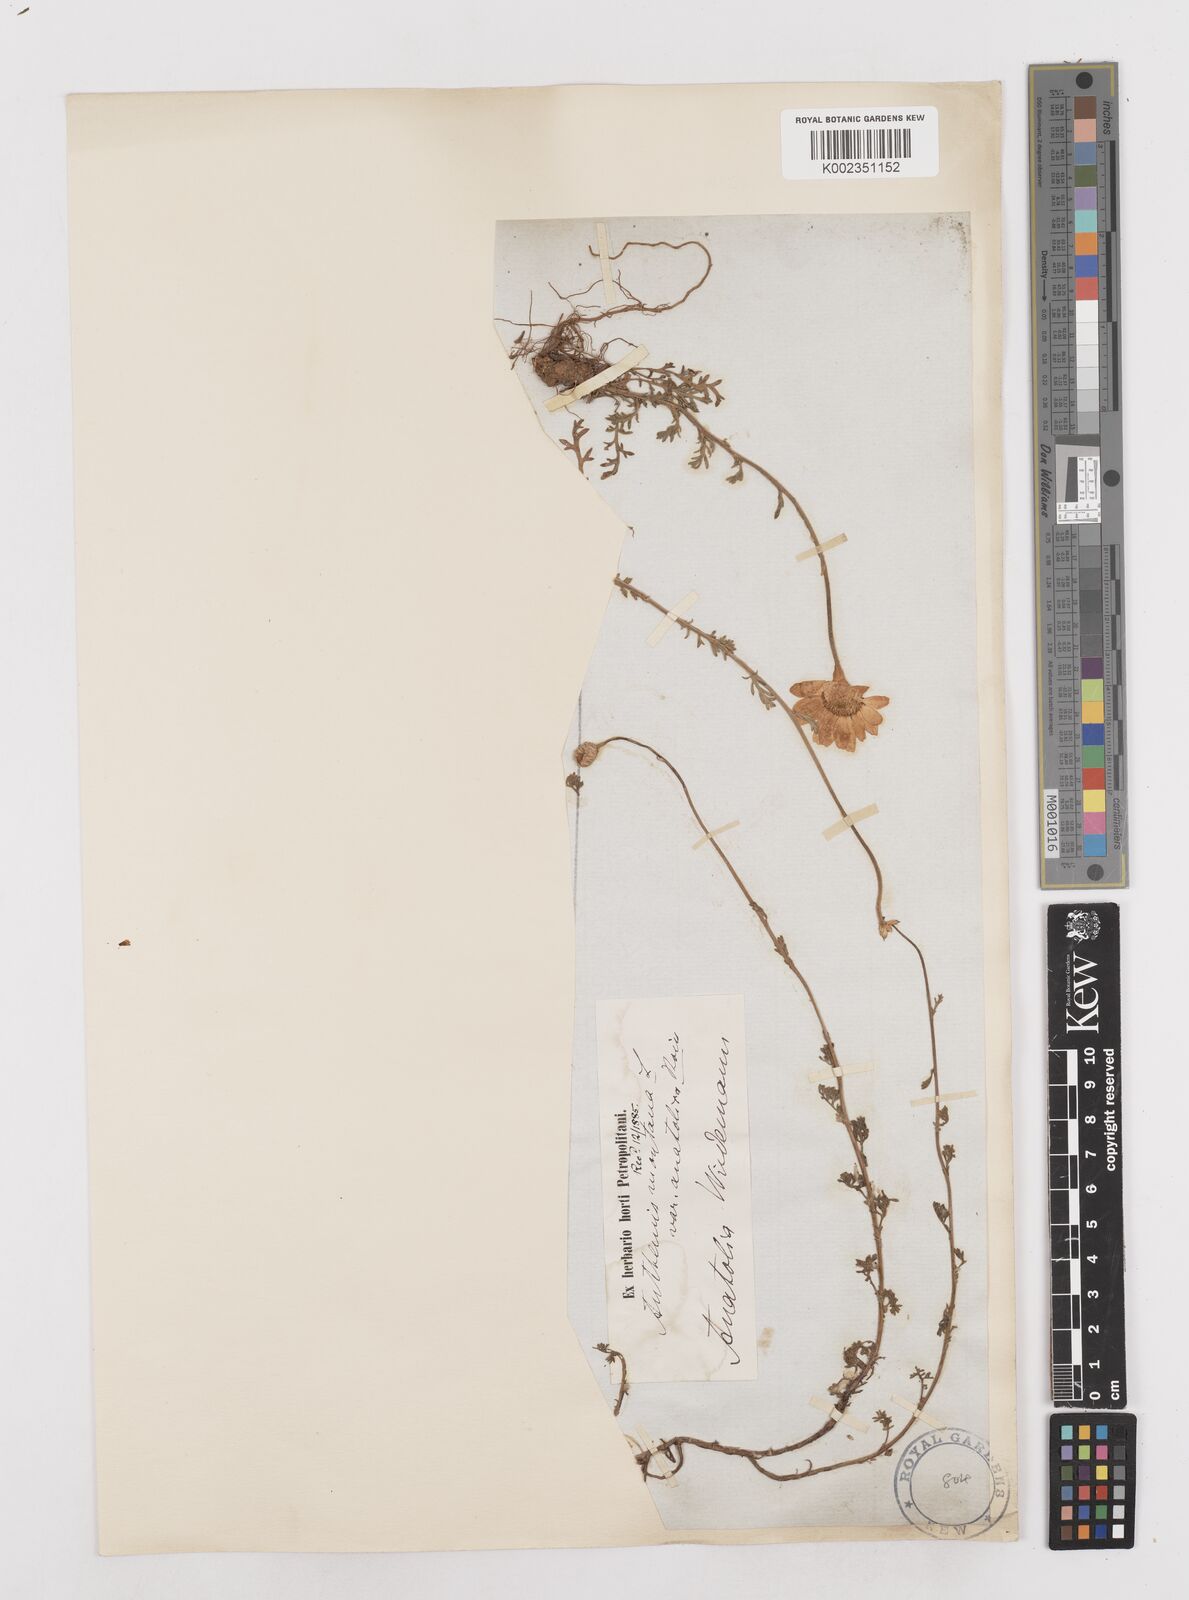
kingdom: Plantae
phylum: Tracheophyta
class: Magnoliopsida
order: Asterales
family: Asteraceae
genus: Anthemis
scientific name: Anthemis cretica
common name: Mountain dog-daisy
